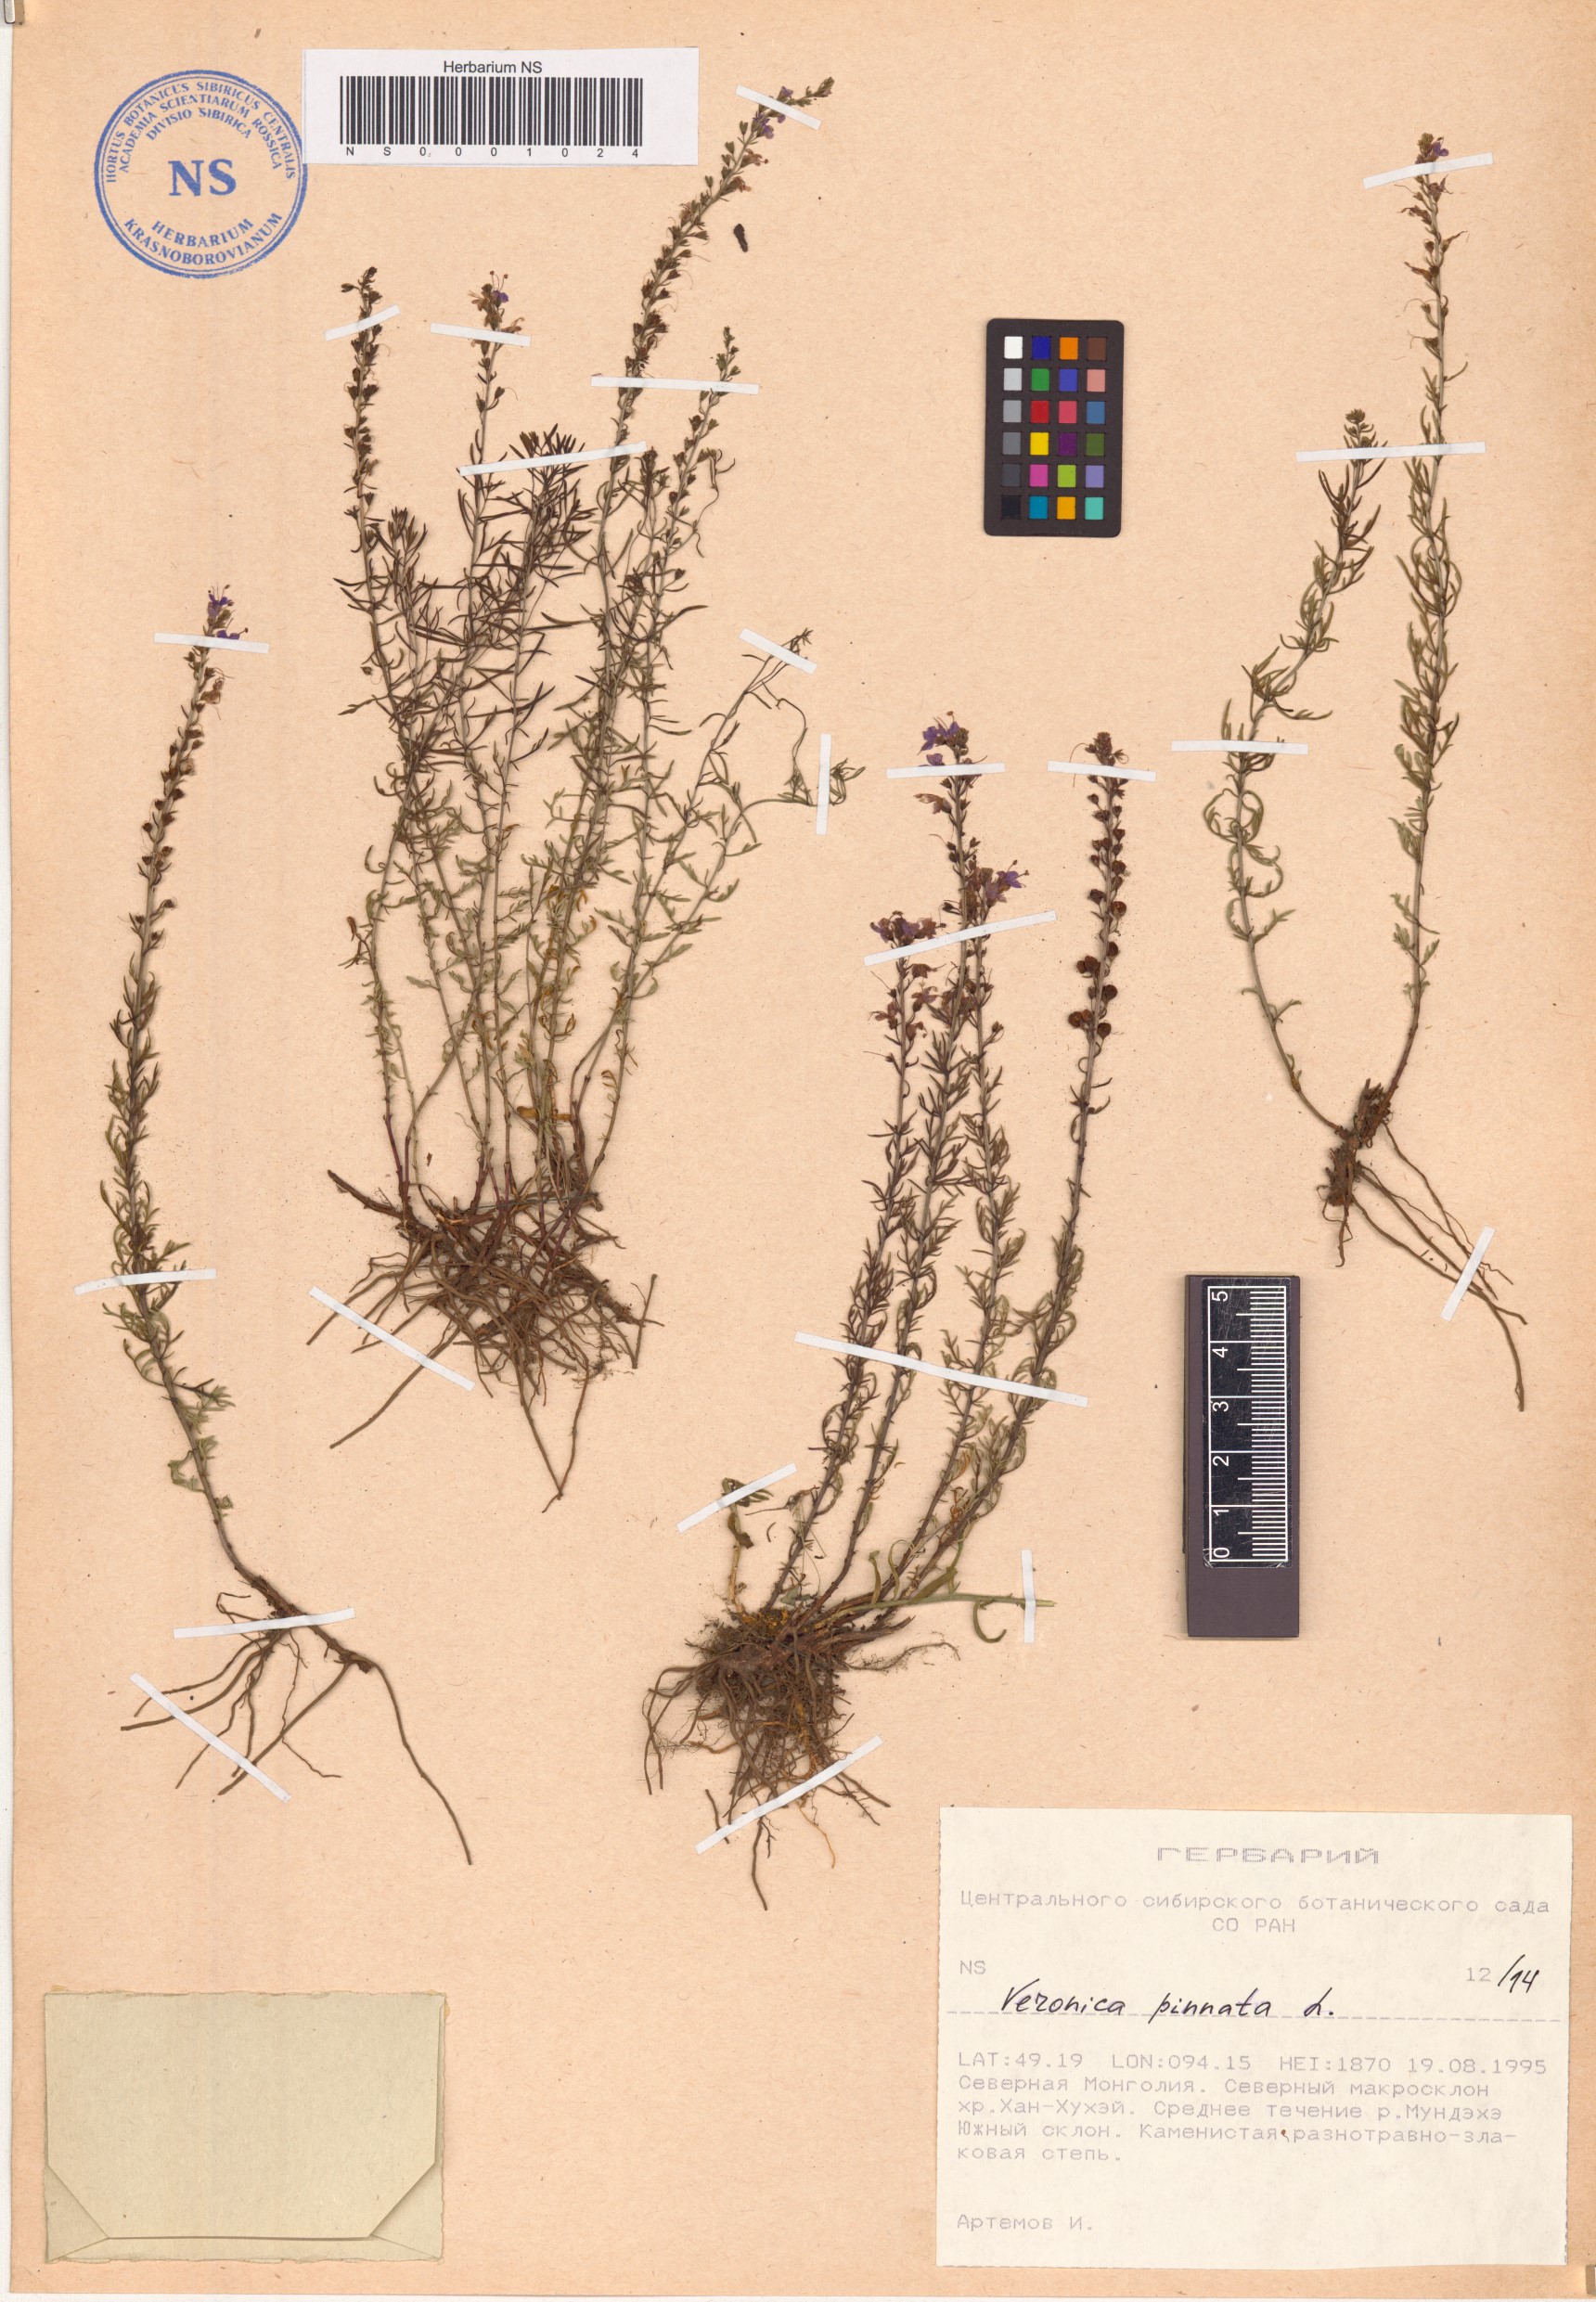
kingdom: Plantae
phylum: Tracheophyta
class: Magnoliopsida
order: Lamiales
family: Plantaginaceae
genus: Veronica
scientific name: Veronica pinnata
